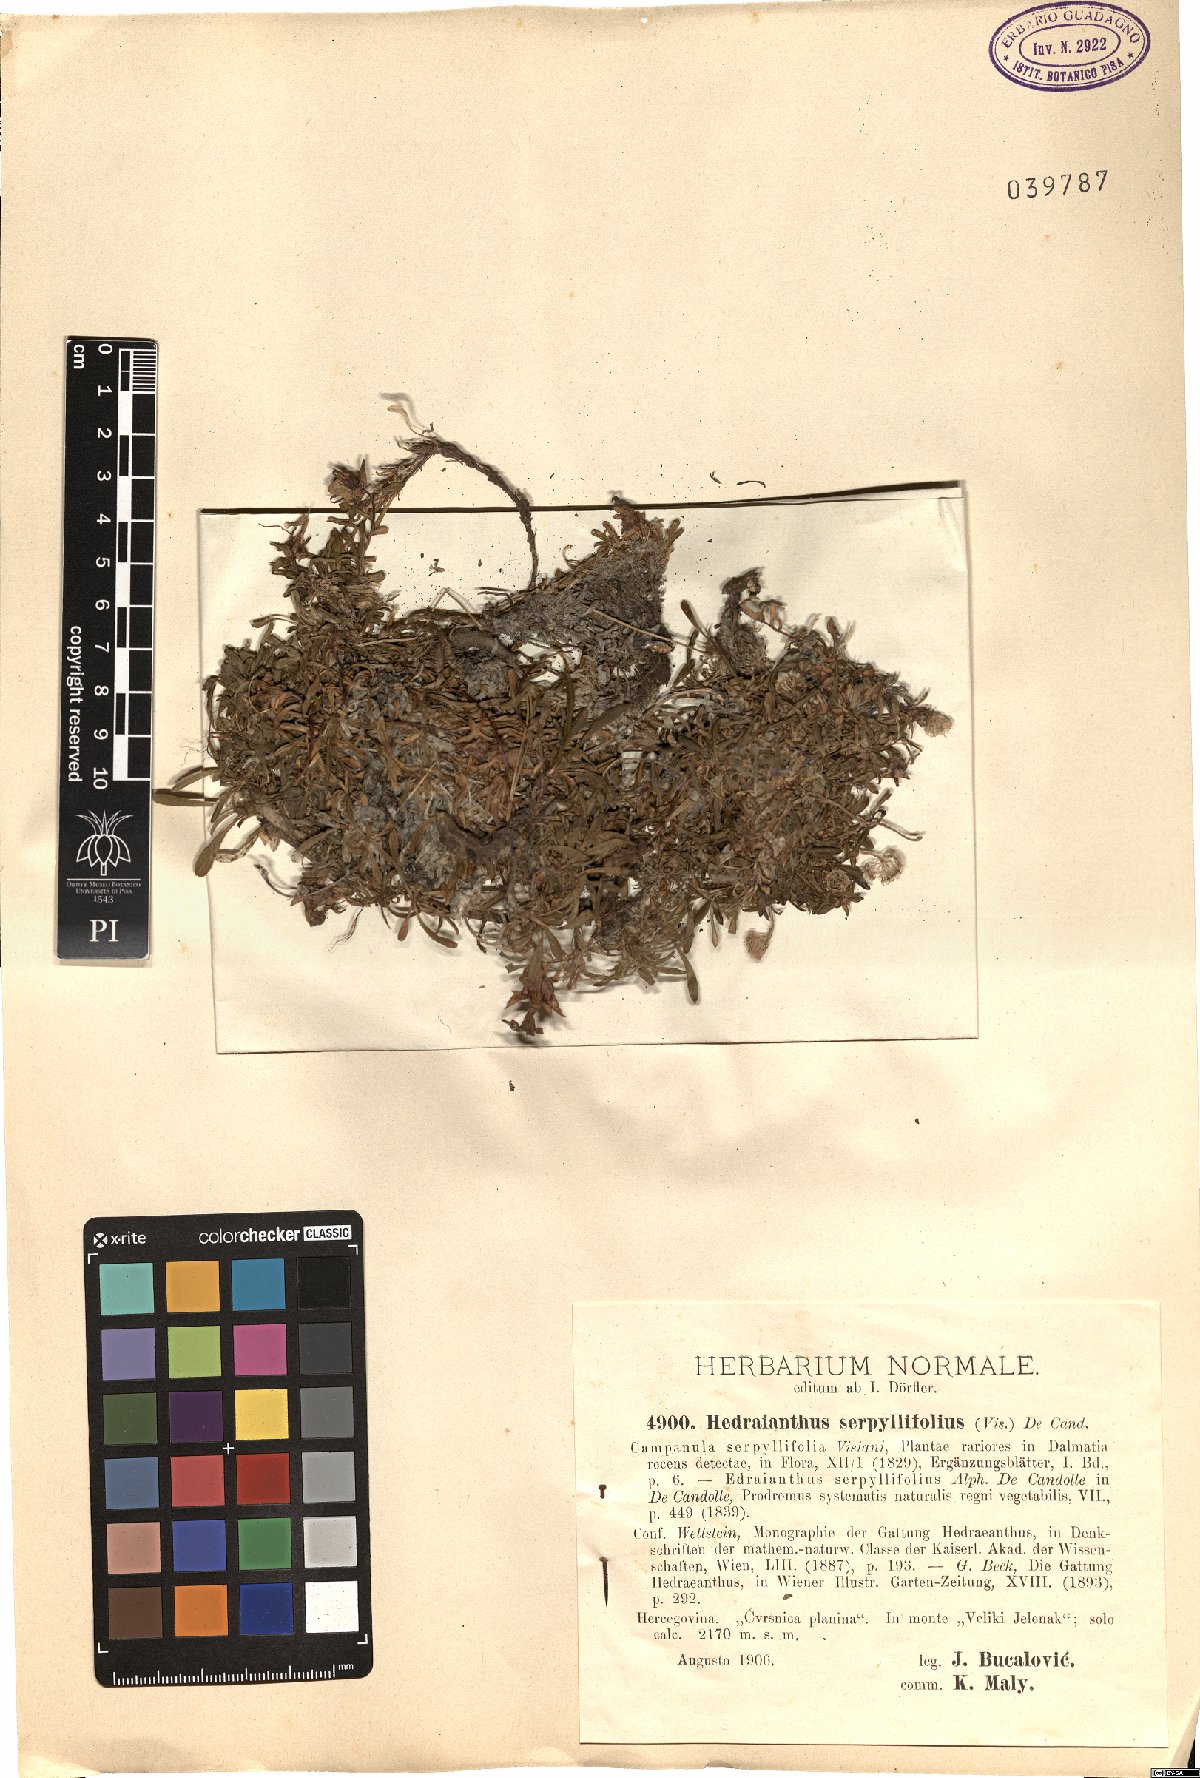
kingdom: Plantae
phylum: Tracheophyta
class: Magnoliopsida
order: Asterales
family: Campanulaceae
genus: Edraianthus
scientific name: Edraianthus serpyllifolius
